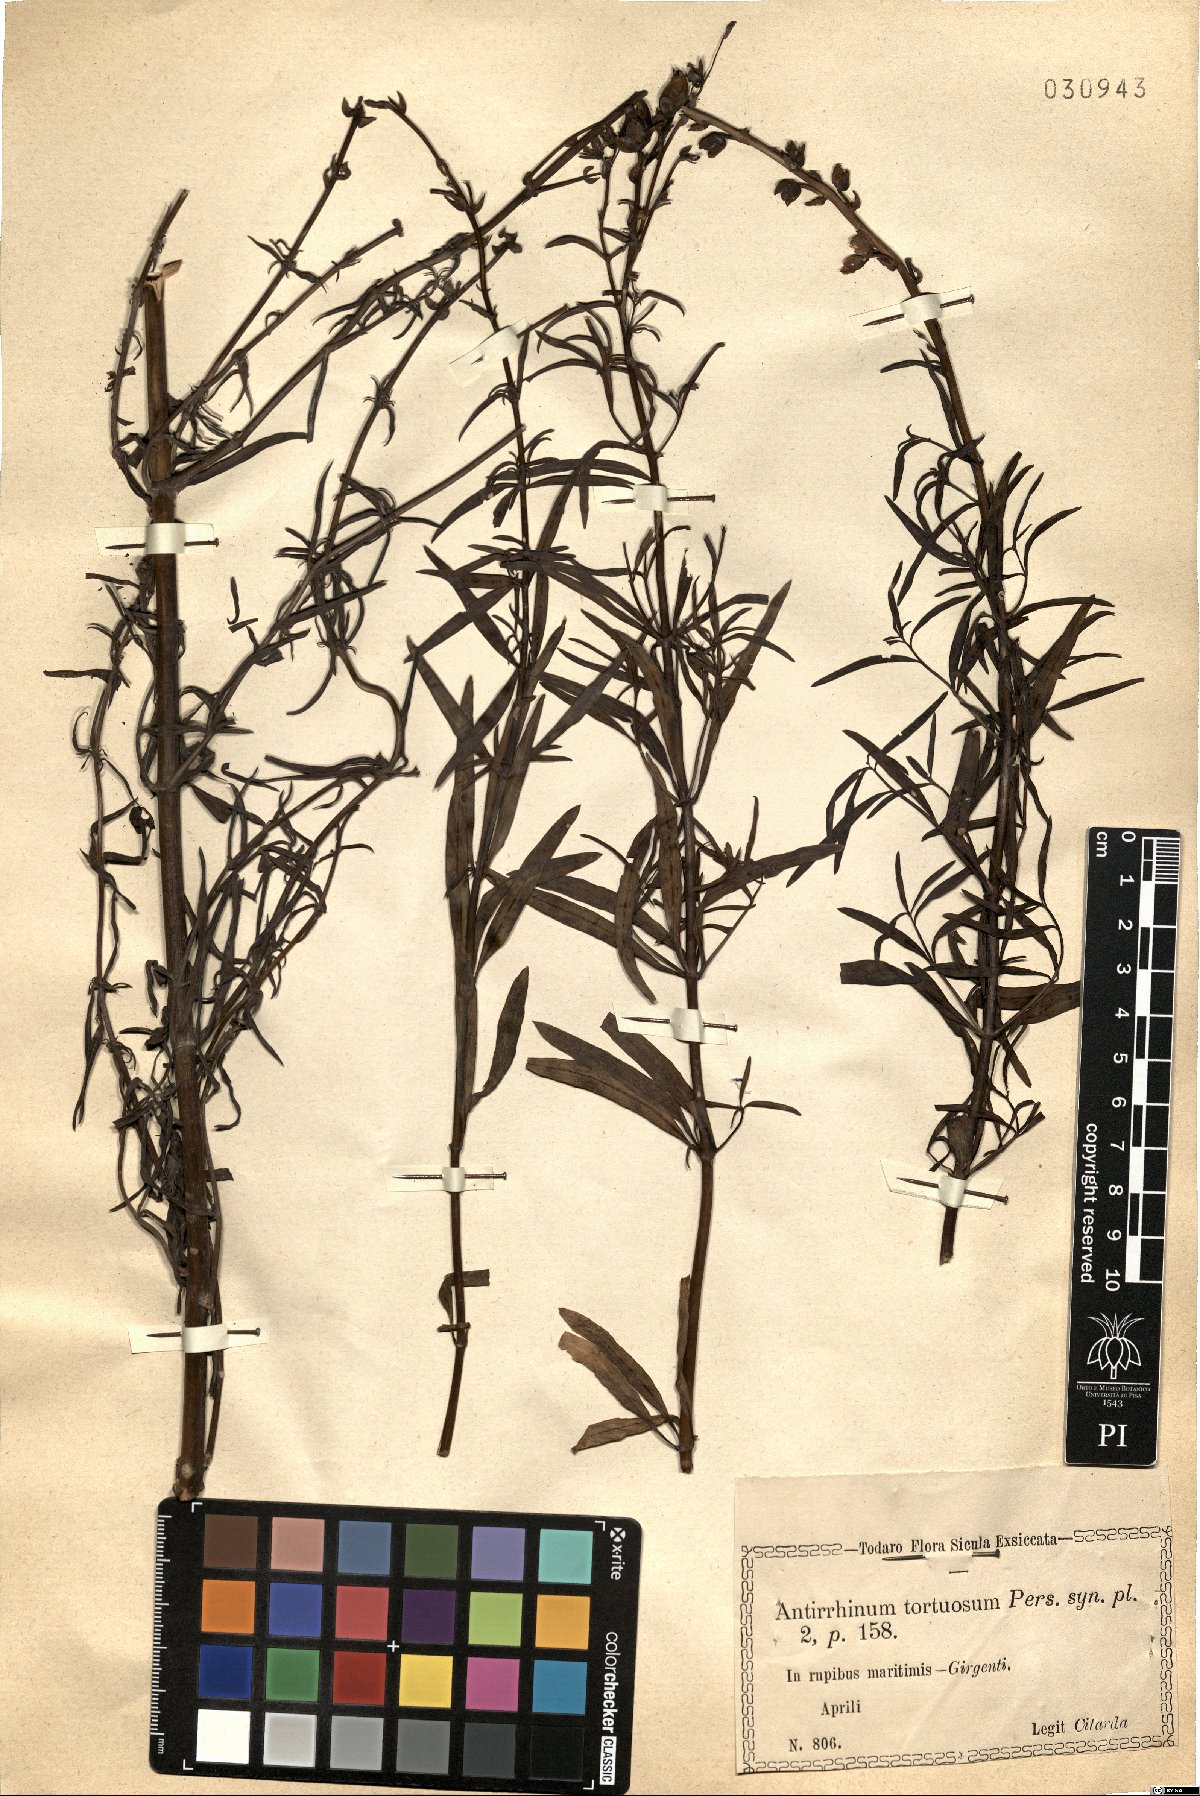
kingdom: Plantae
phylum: Tracheophyta
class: Magnoliopsida
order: Lamiales
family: Plantaginaceae
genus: Antirrhinum
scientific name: Antirrhinum tortuosum
